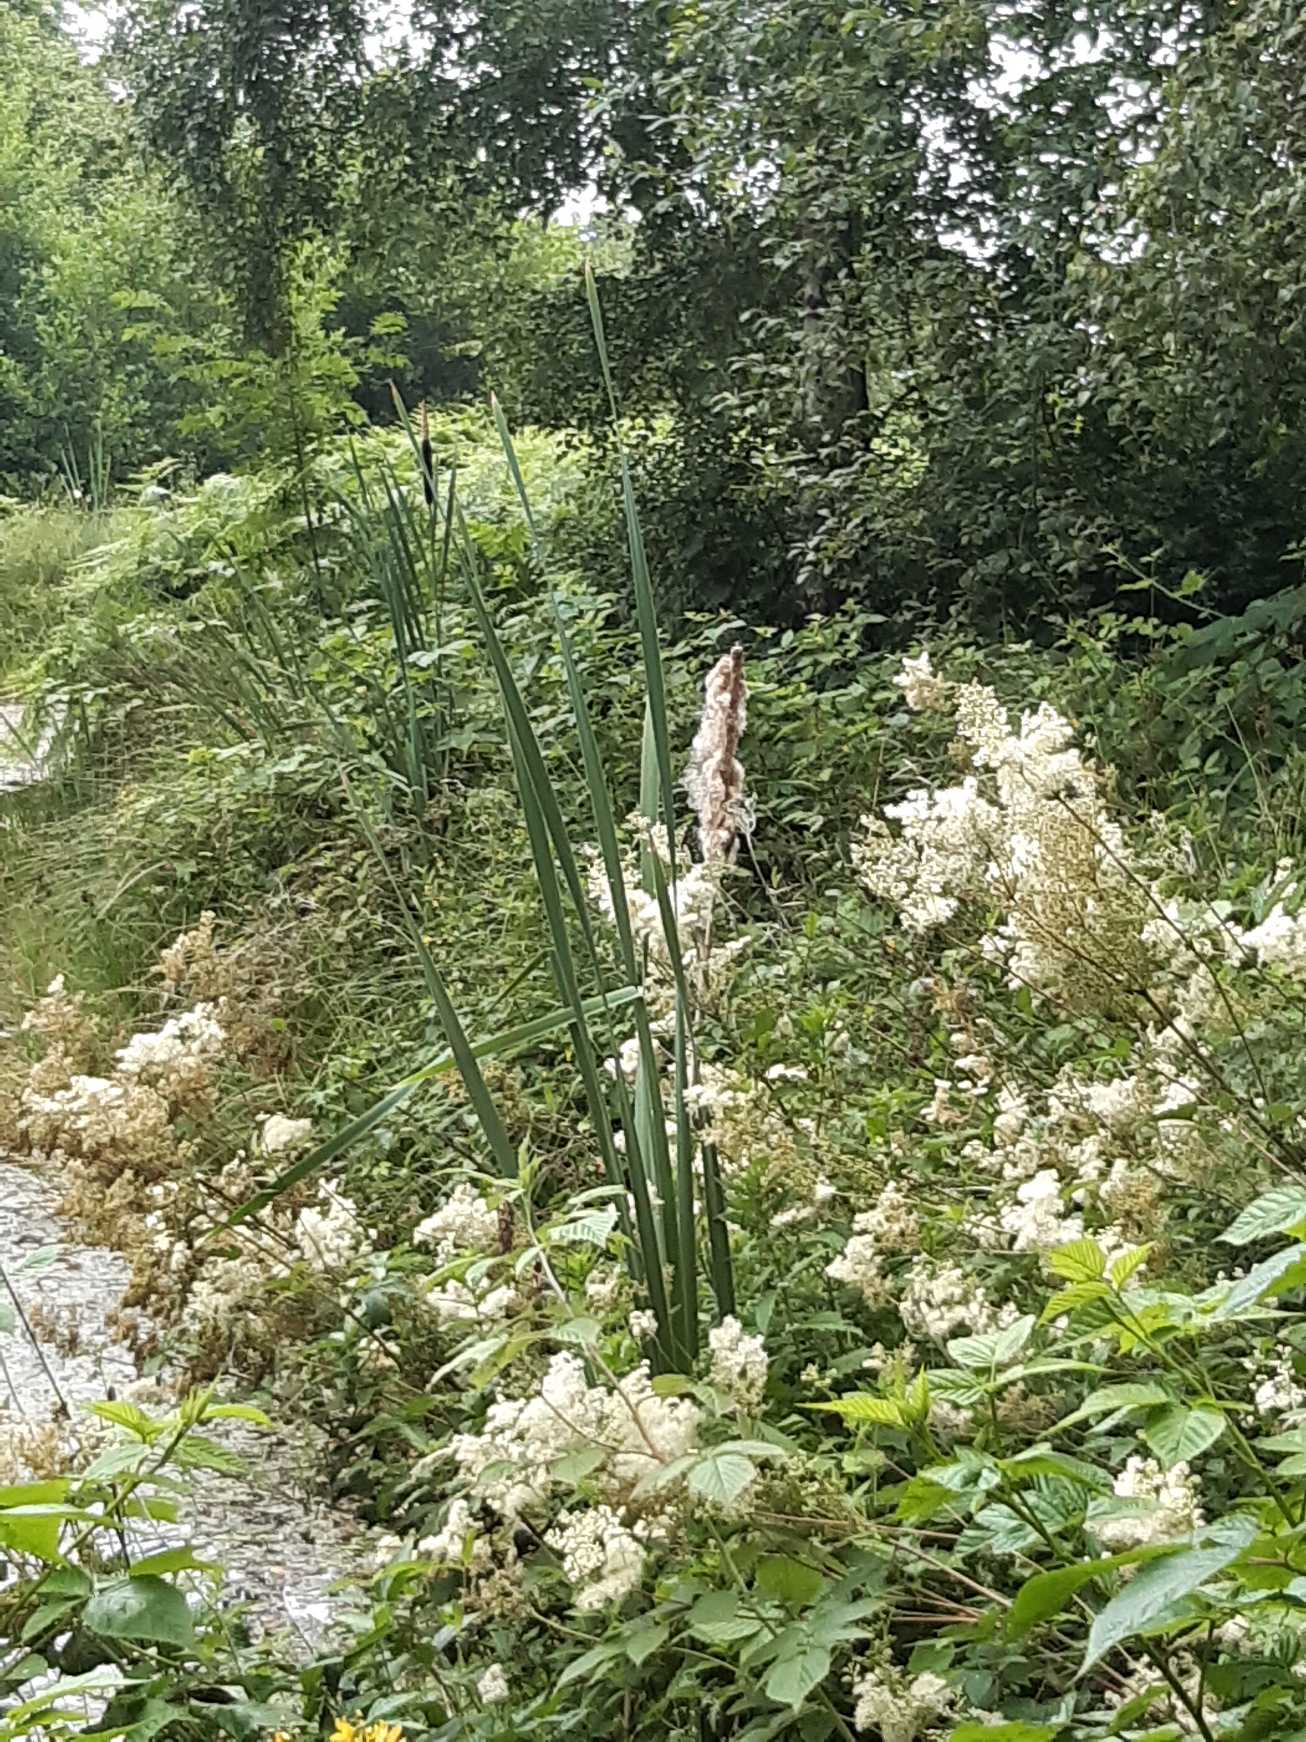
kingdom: Plantae
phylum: Tracheophyta
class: Liliopsida
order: Poales
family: Typhaceae
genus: Typha
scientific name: Typha latifolia
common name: Bredbladet dunhammer
